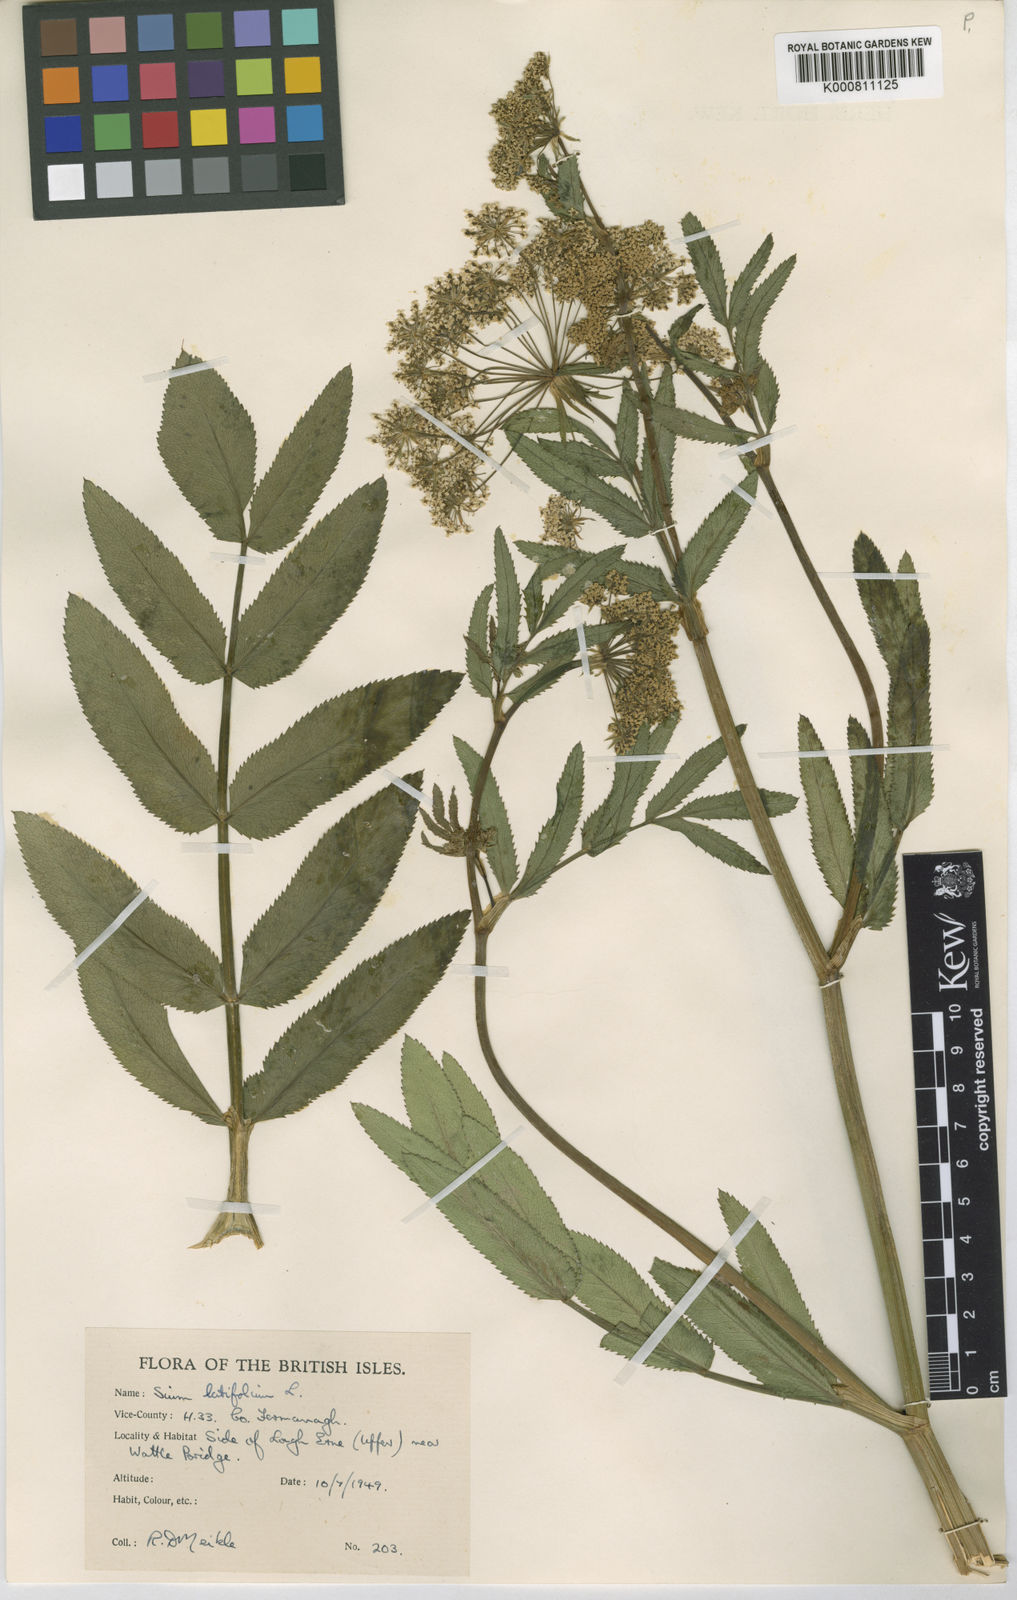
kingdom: Plantae
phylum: Tracheophyta
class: Magnoliopsida
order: Apiales
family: Apiaceae
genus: Sium
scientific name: Sium latifolium
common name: Greater water-parsnip
